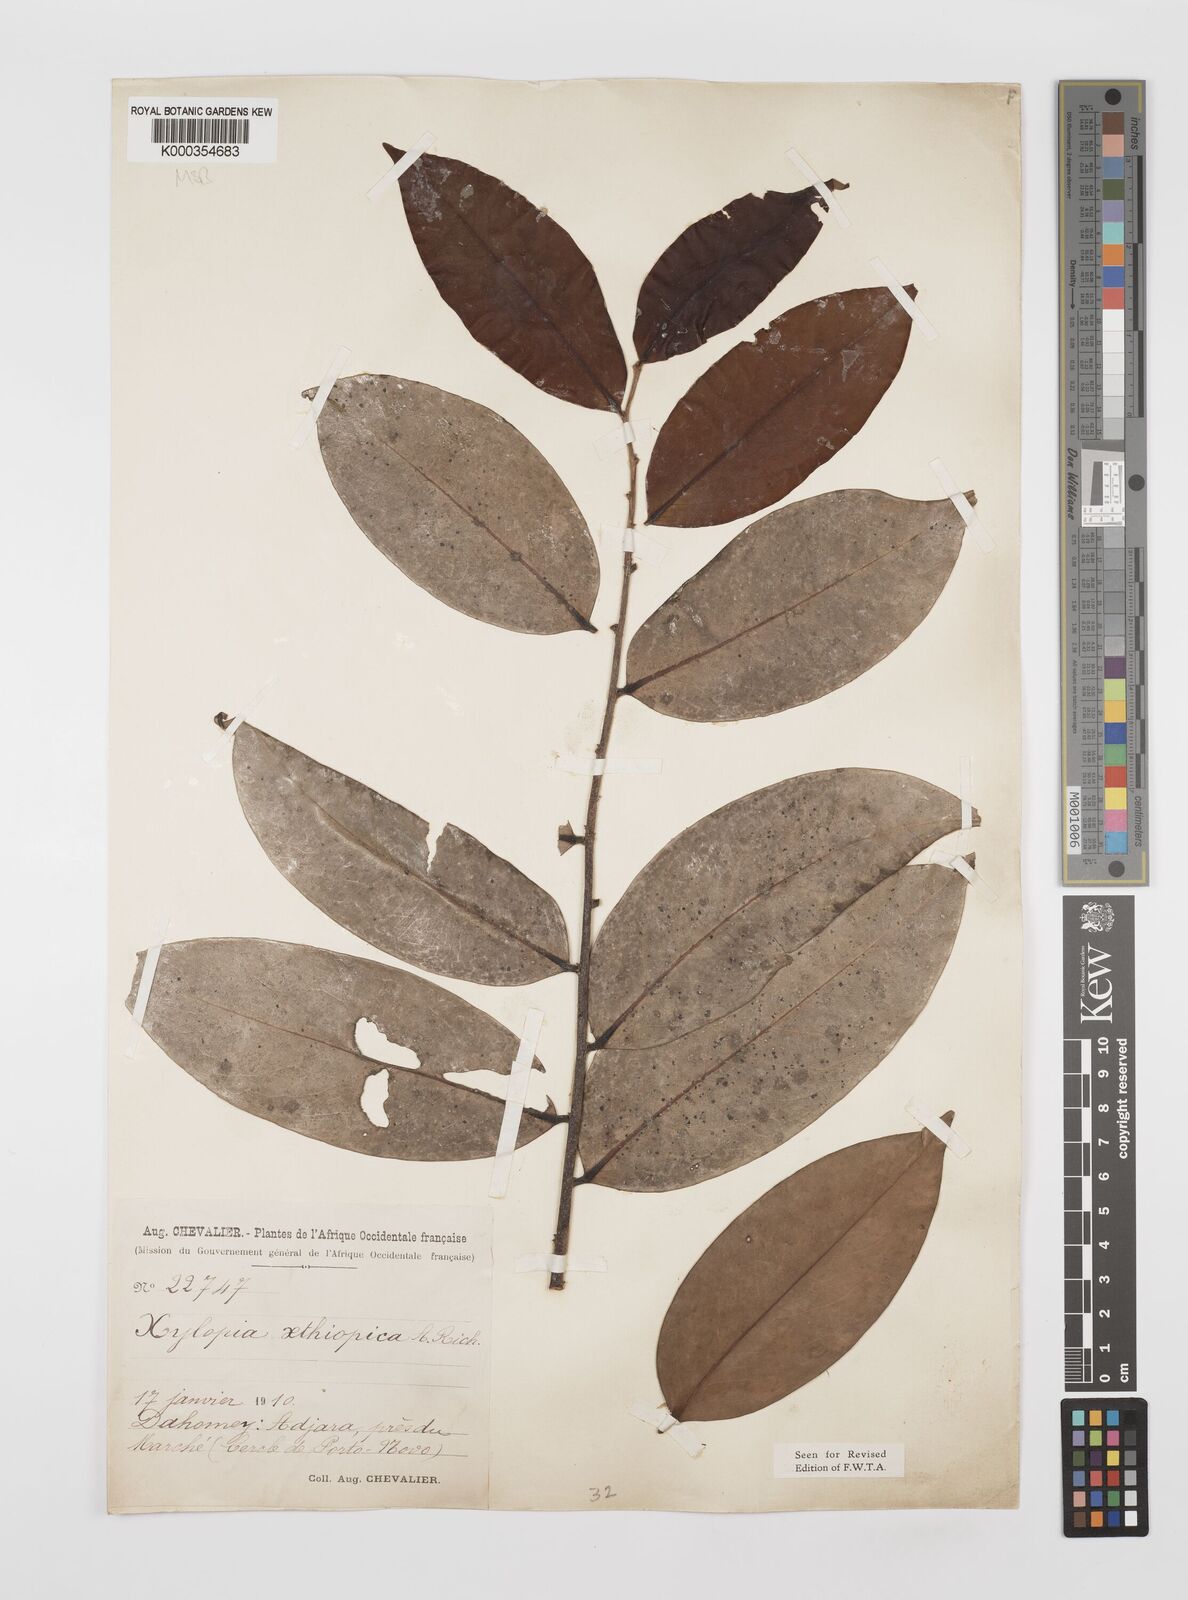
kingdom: Plantae
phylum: Tracheophyta
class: Magnoliopsida
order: Magnoliales
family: Annonaceae
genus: Xylopia
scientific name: Xylopia aethiopica
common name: Ethiopian-pepper
